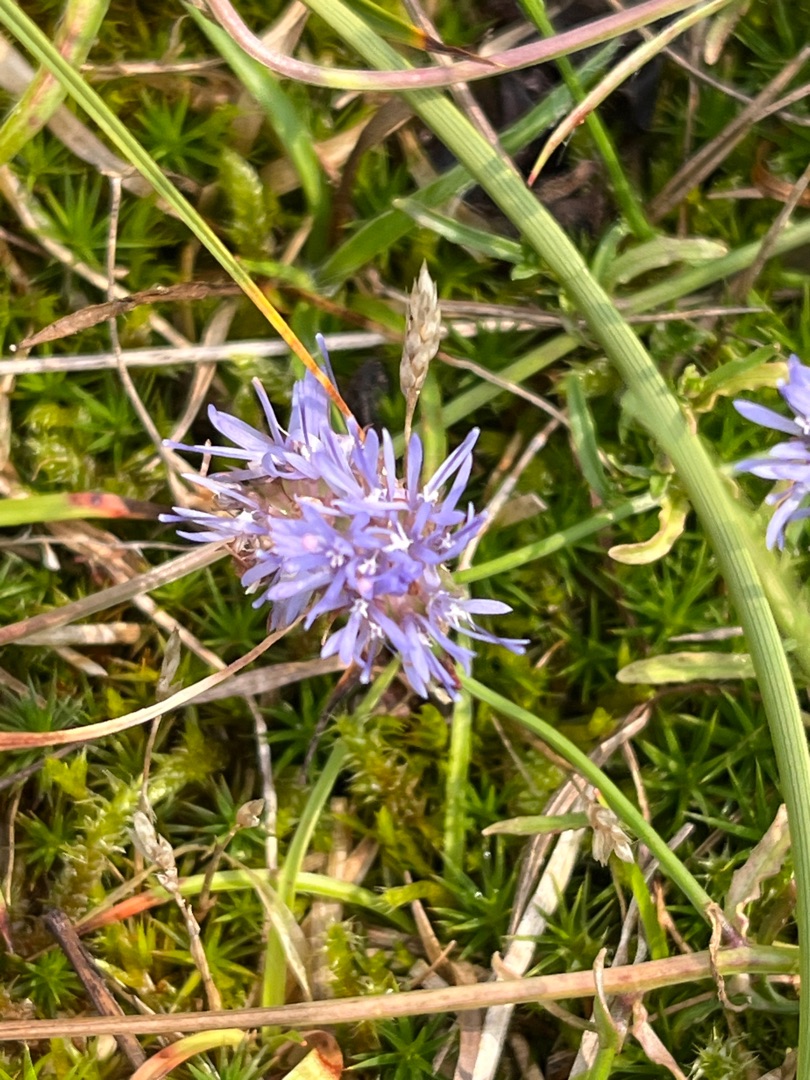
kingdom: Plantae
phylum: Tracheophyta
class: Magnoliopsida
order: Asterales
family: Campanulaceae
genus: Jasione
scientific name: Jasione montana
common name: Blåmunke
